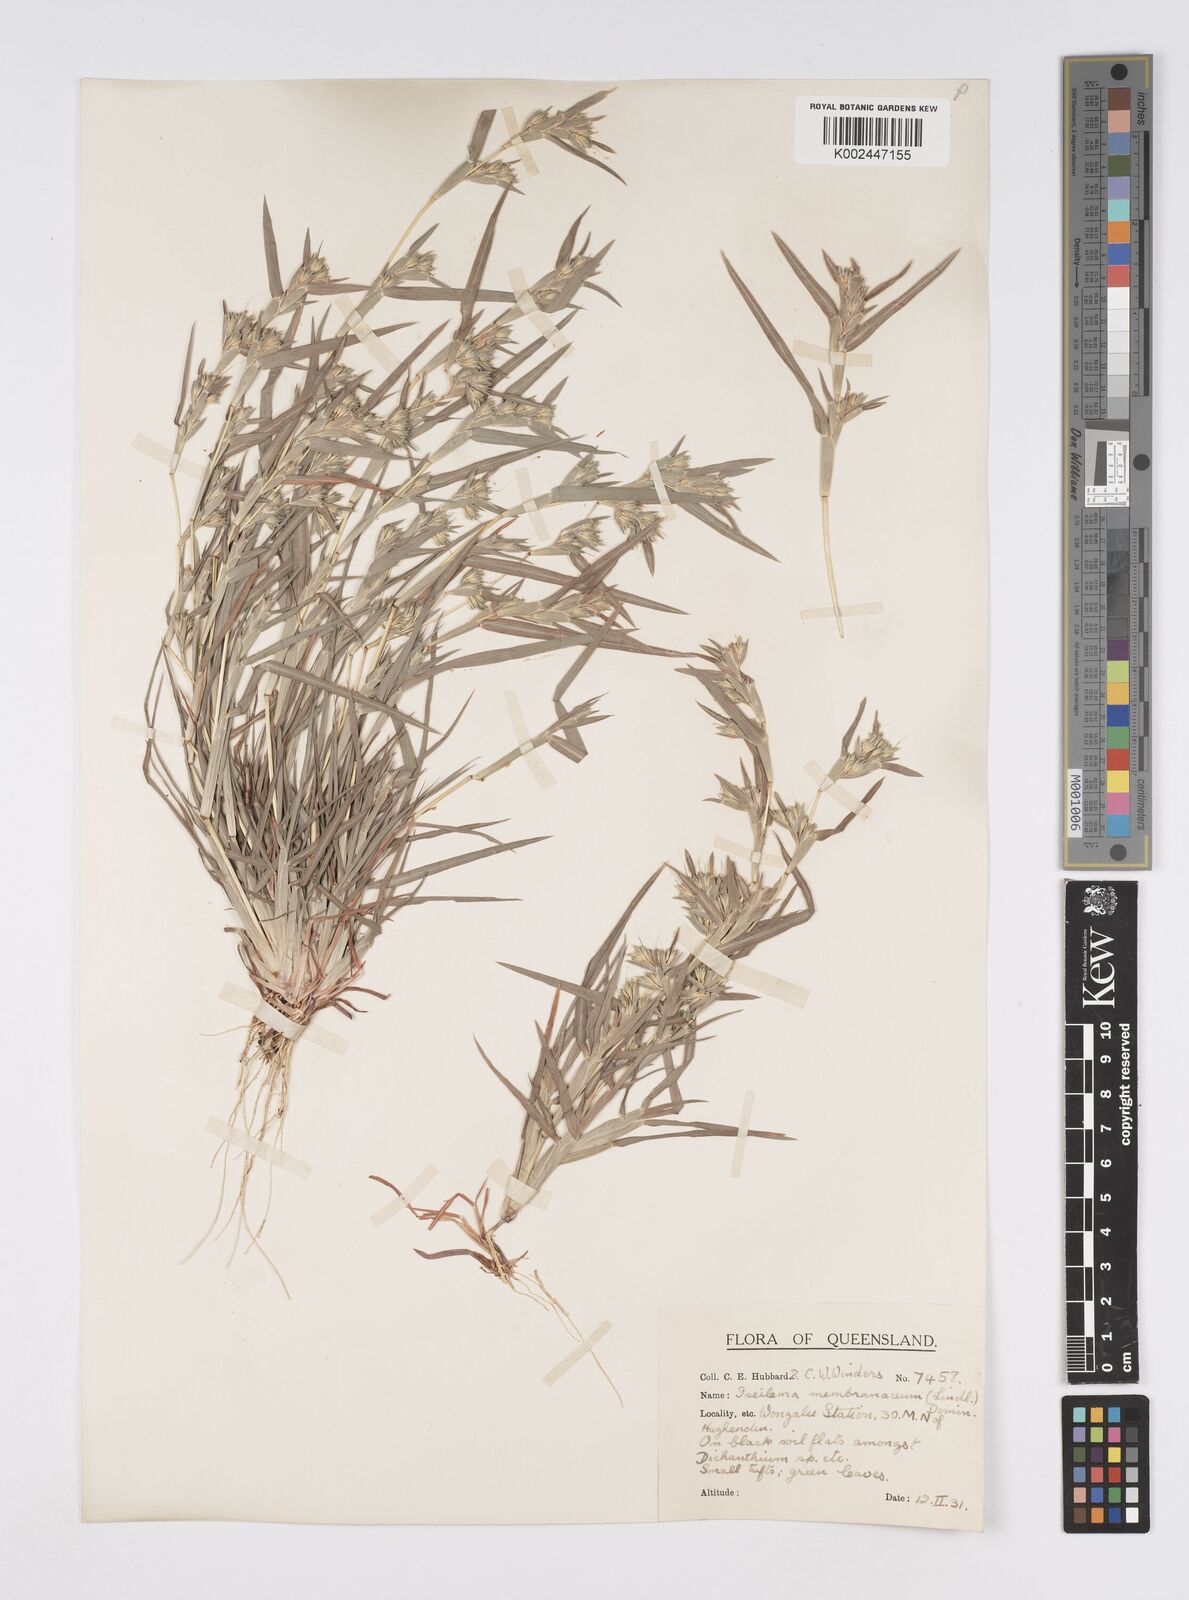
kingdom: Plantae
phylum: Tracheophyta
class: Liliopsida
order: Poales
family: Poaceae
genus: Iseilema
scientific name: Iseilema membranaceum
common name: Small flinders grass
